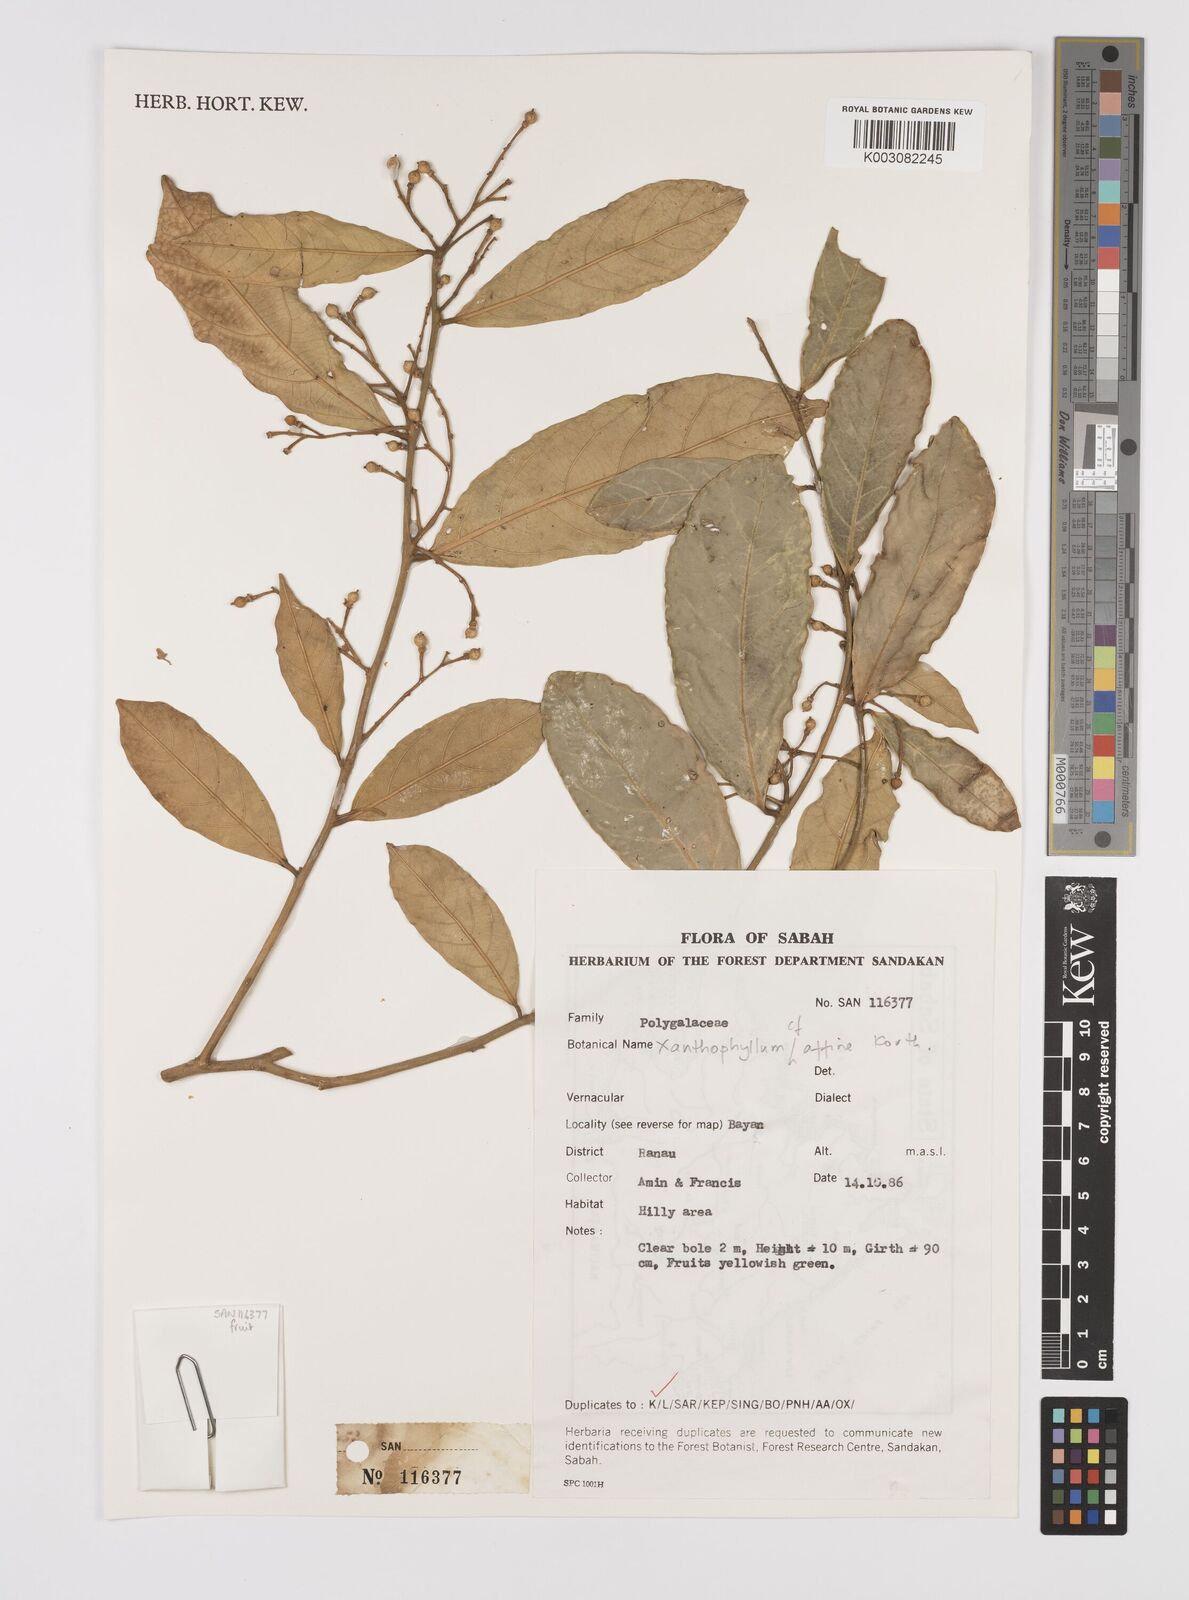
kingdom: Plantae
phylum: Tracheophyta
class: Magnoliopsida
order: Fabales
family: Polygalaceae
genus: Xanthophyllum
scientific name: Xanthophyllum flavescens
